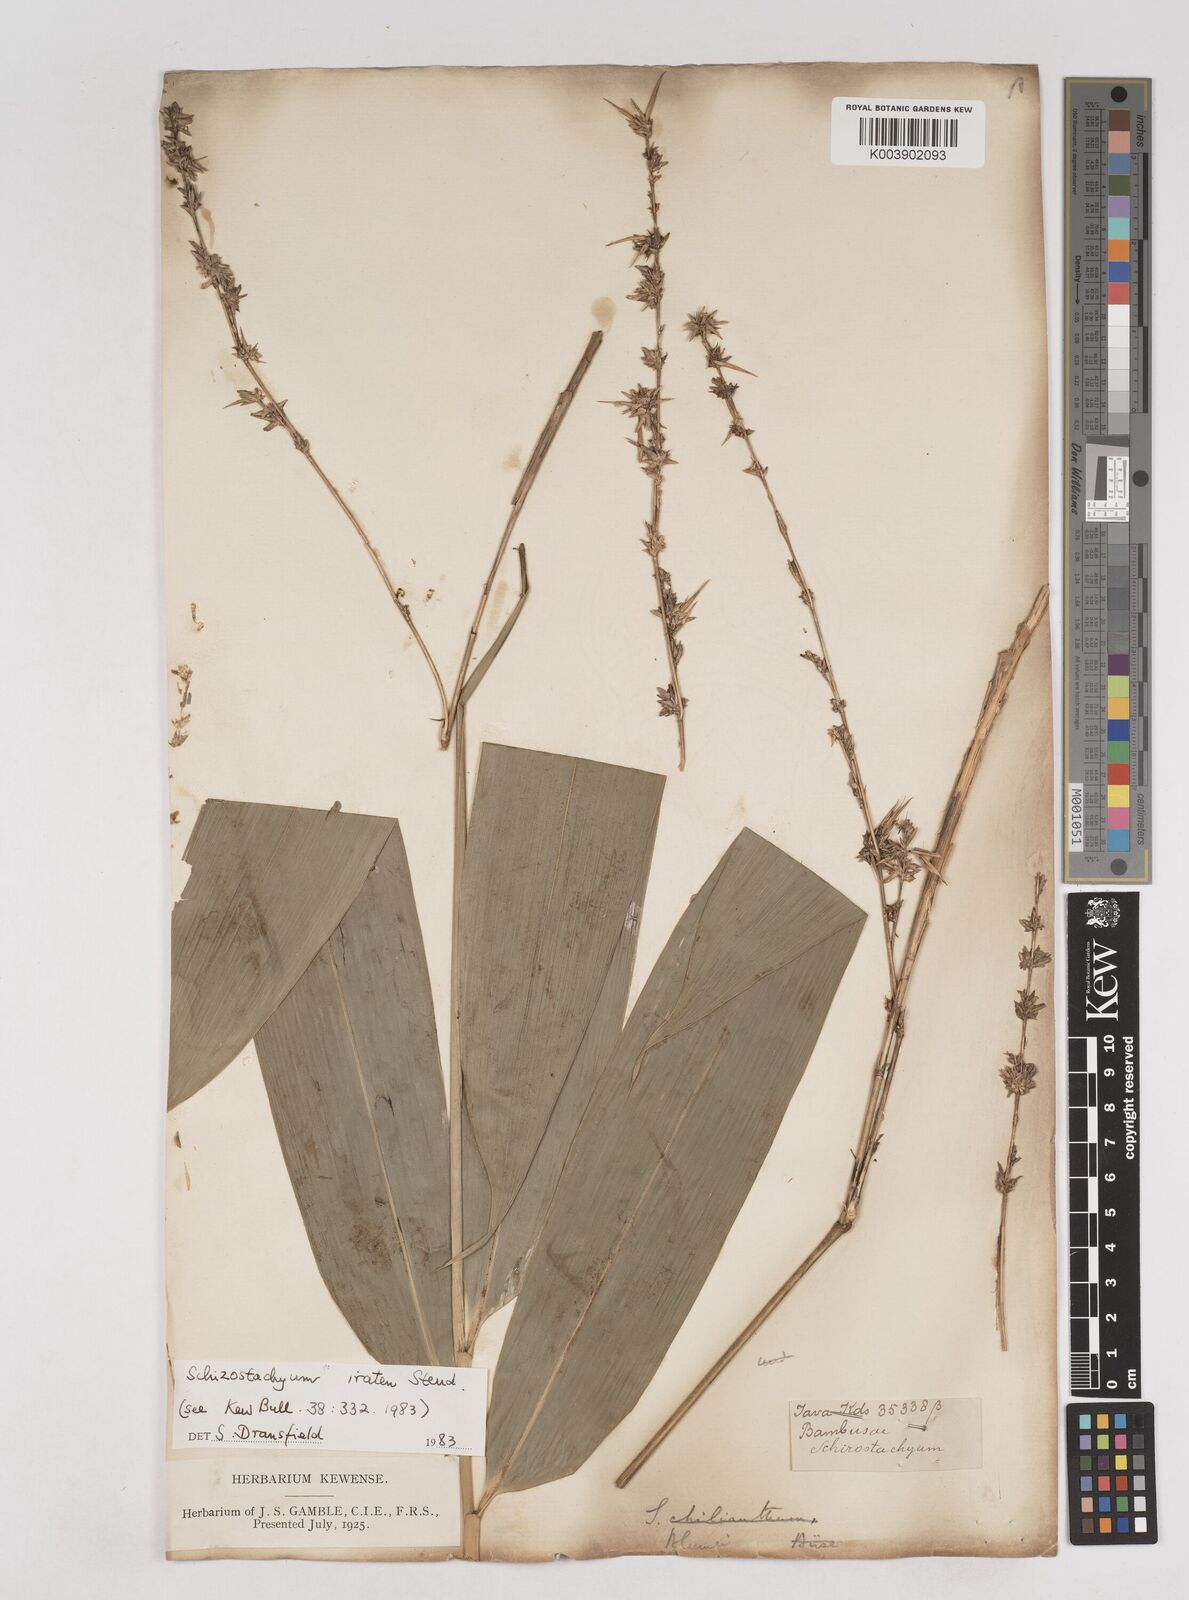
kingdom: Plantae
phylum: Tracheophyta
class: Liliopsida
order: Poales
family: Poaceae
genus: Schizostachyum
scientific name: Schizostachyum iraten
